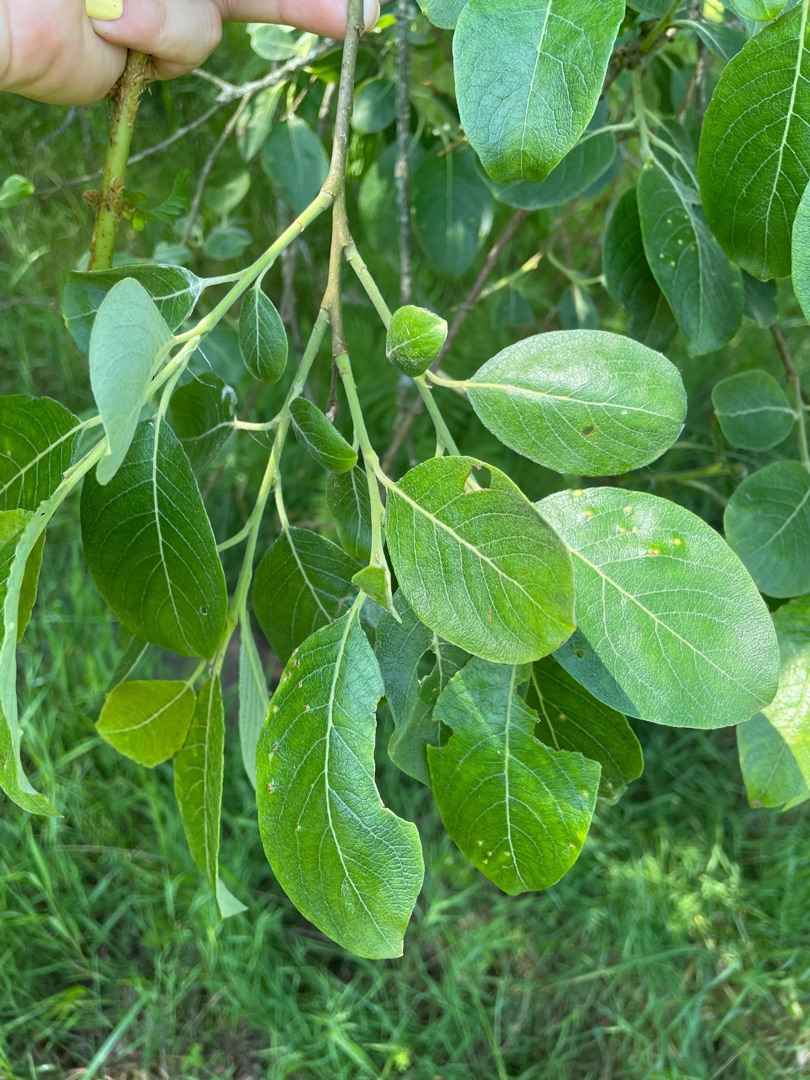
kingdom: Plantae
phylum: Tracheophyta
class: Magnoliopsida
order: Malpighiales
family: Salicaceae
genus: Salix
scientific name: Salix caprea
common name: Selje-pil
